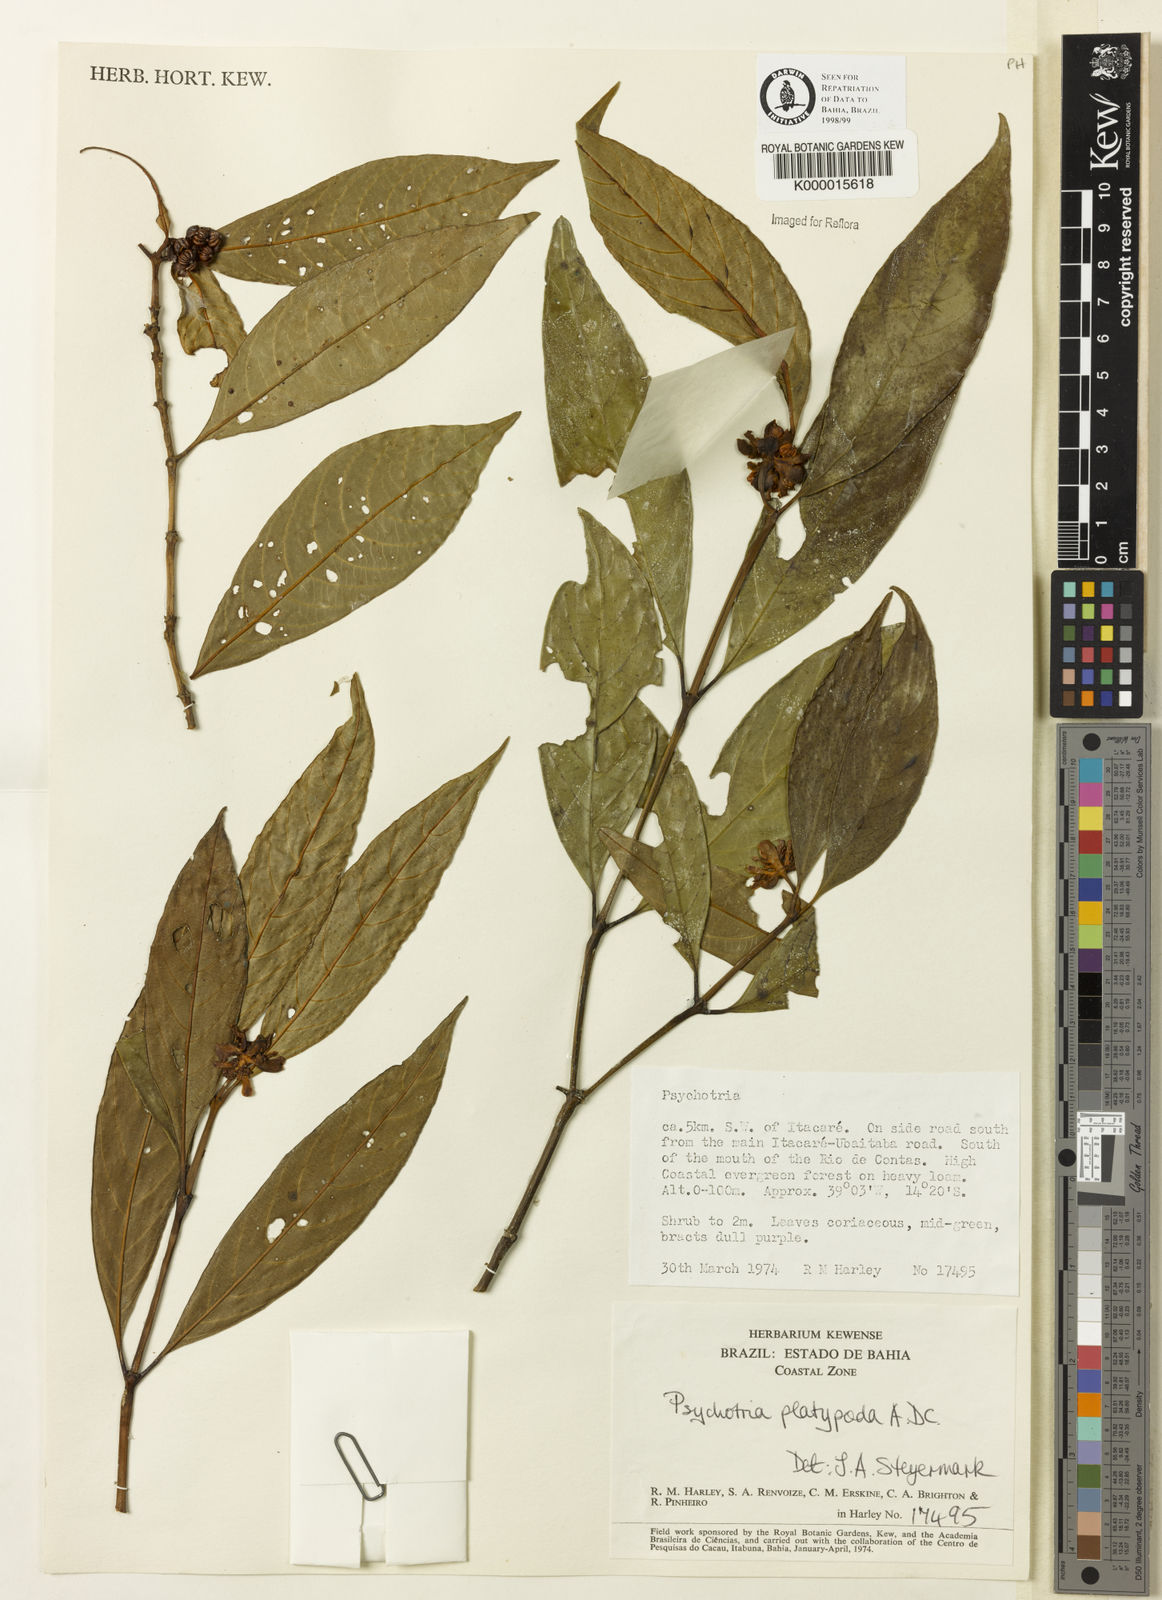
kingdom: Plantae
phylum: Tracheophyta
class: Magnoliopsida
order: Gentianales
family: Rubiaceae
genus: Palicourea
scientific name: Palicourea dichotoma
